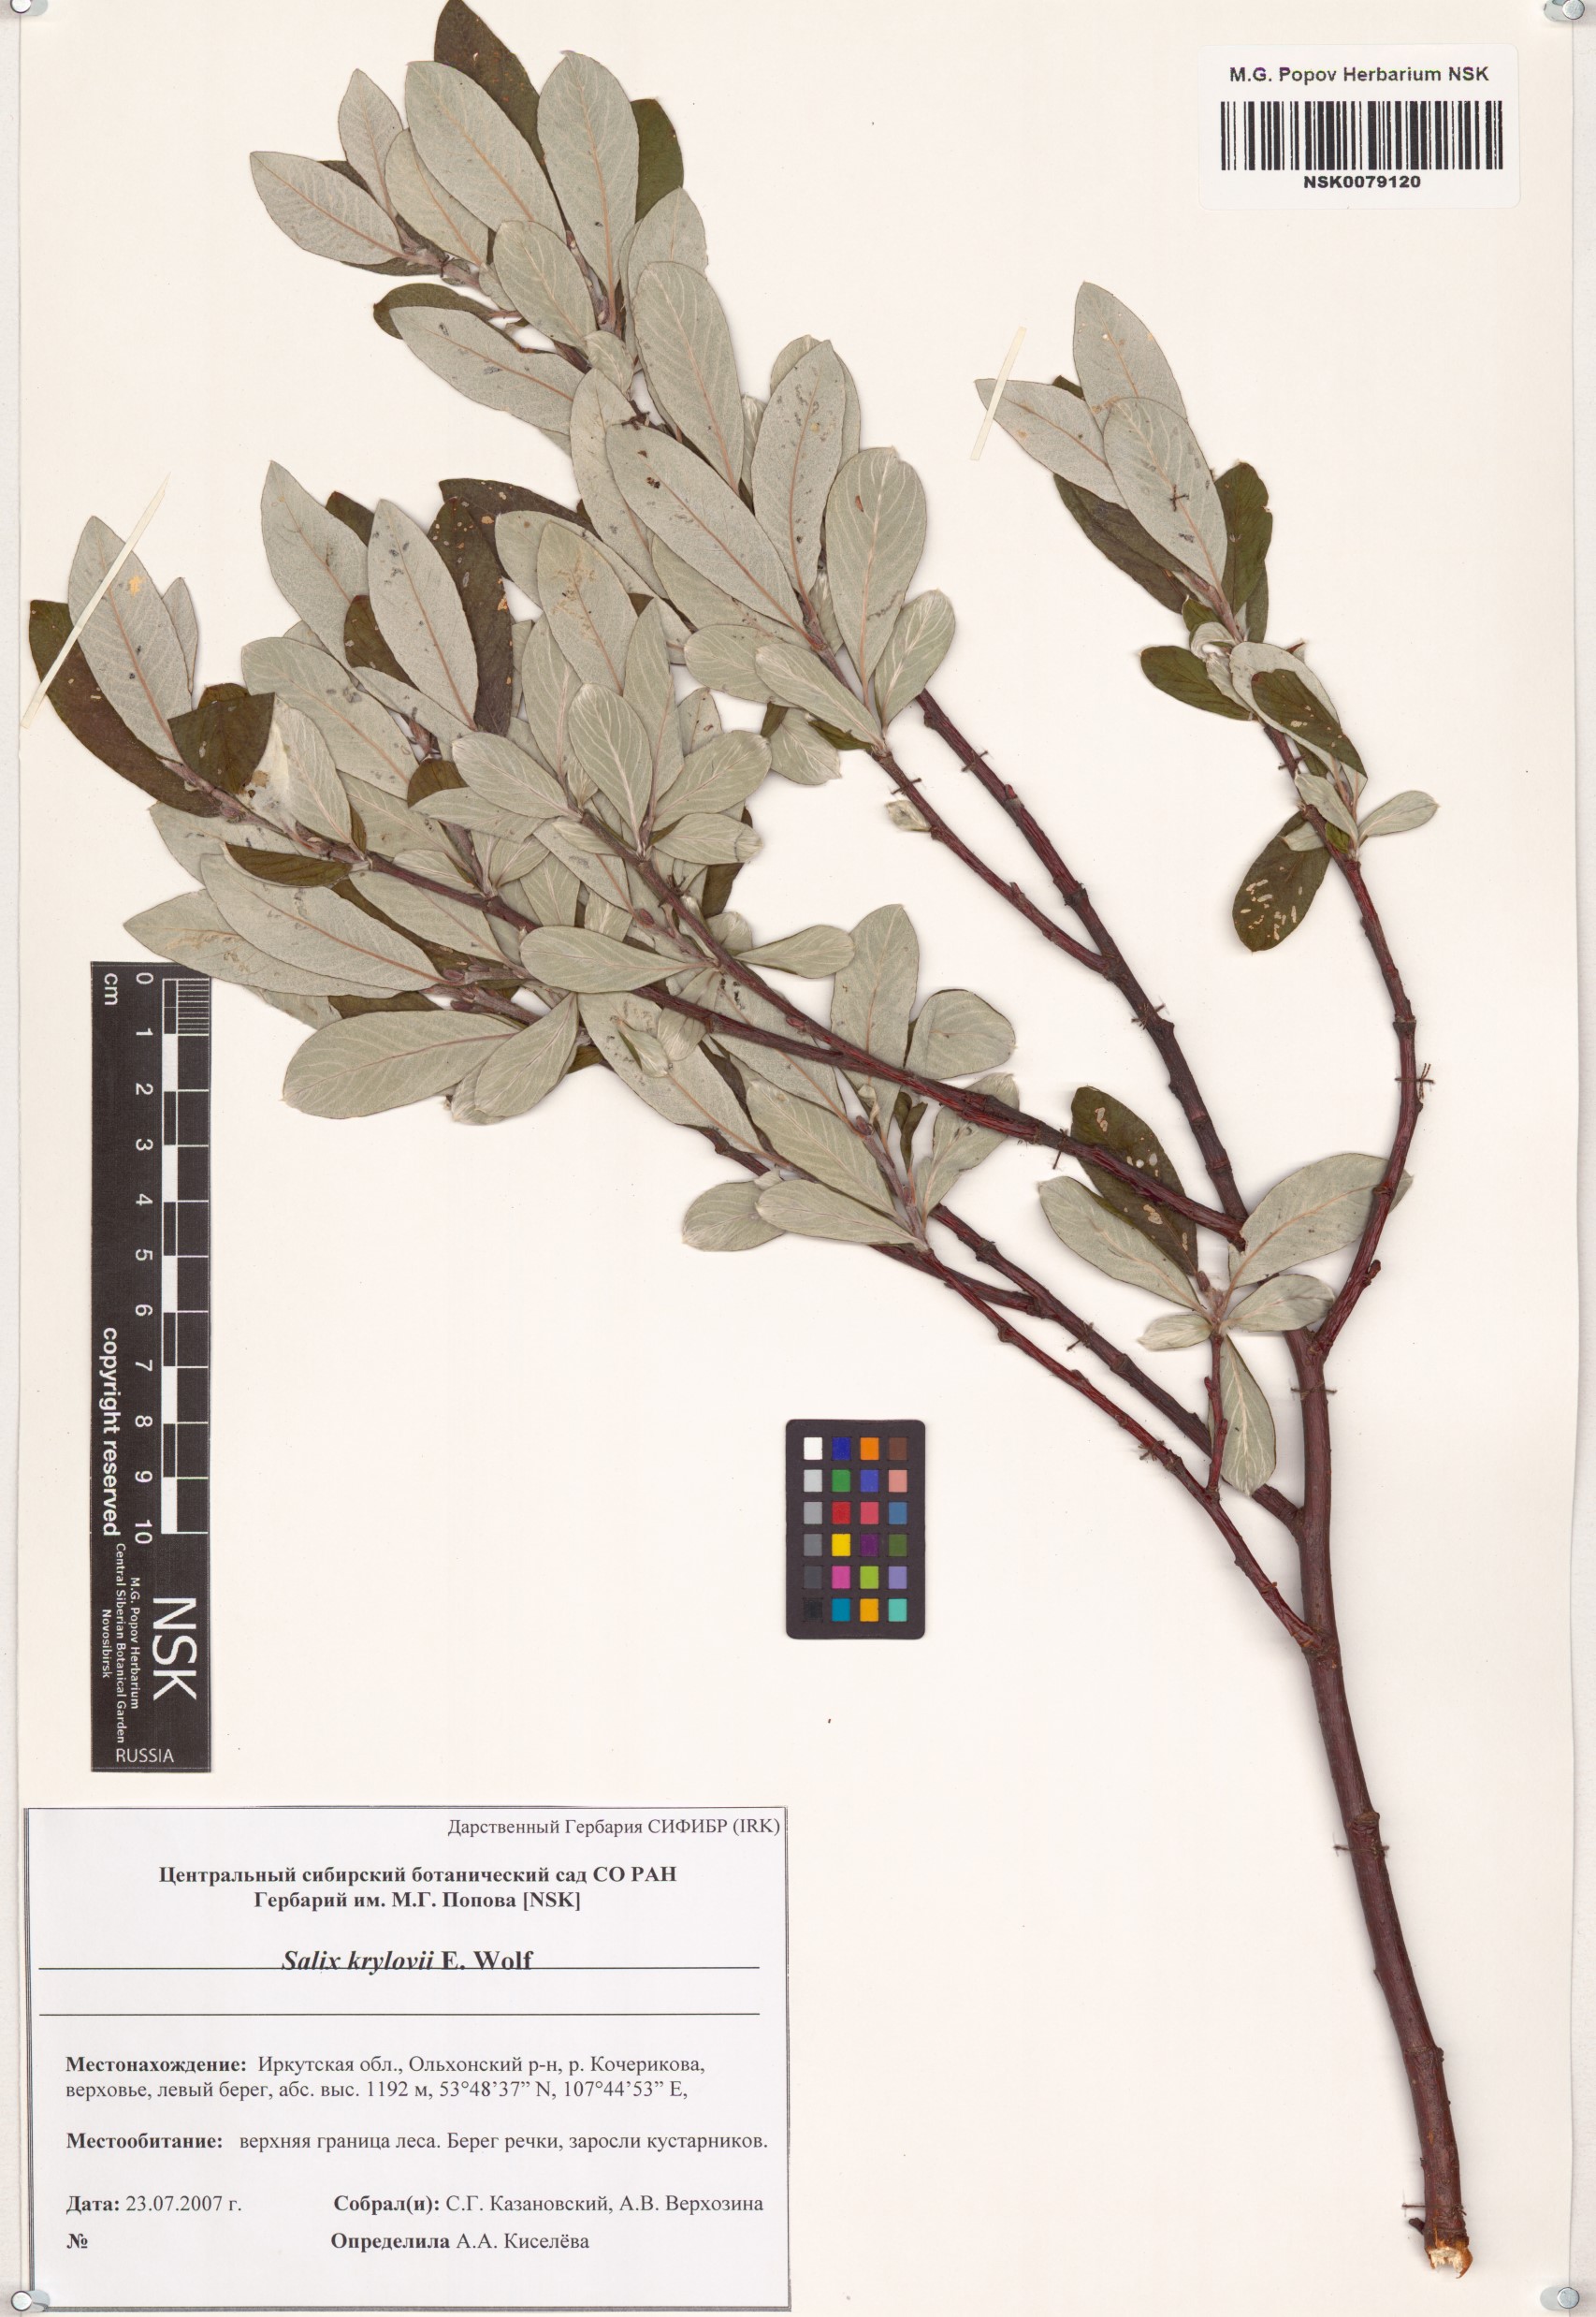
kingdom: Plantae
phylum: Tracheophyta
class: Magnoliopsida
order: Malpighiales
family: Salicaceae
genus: Salix
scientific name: Salix krylovii
